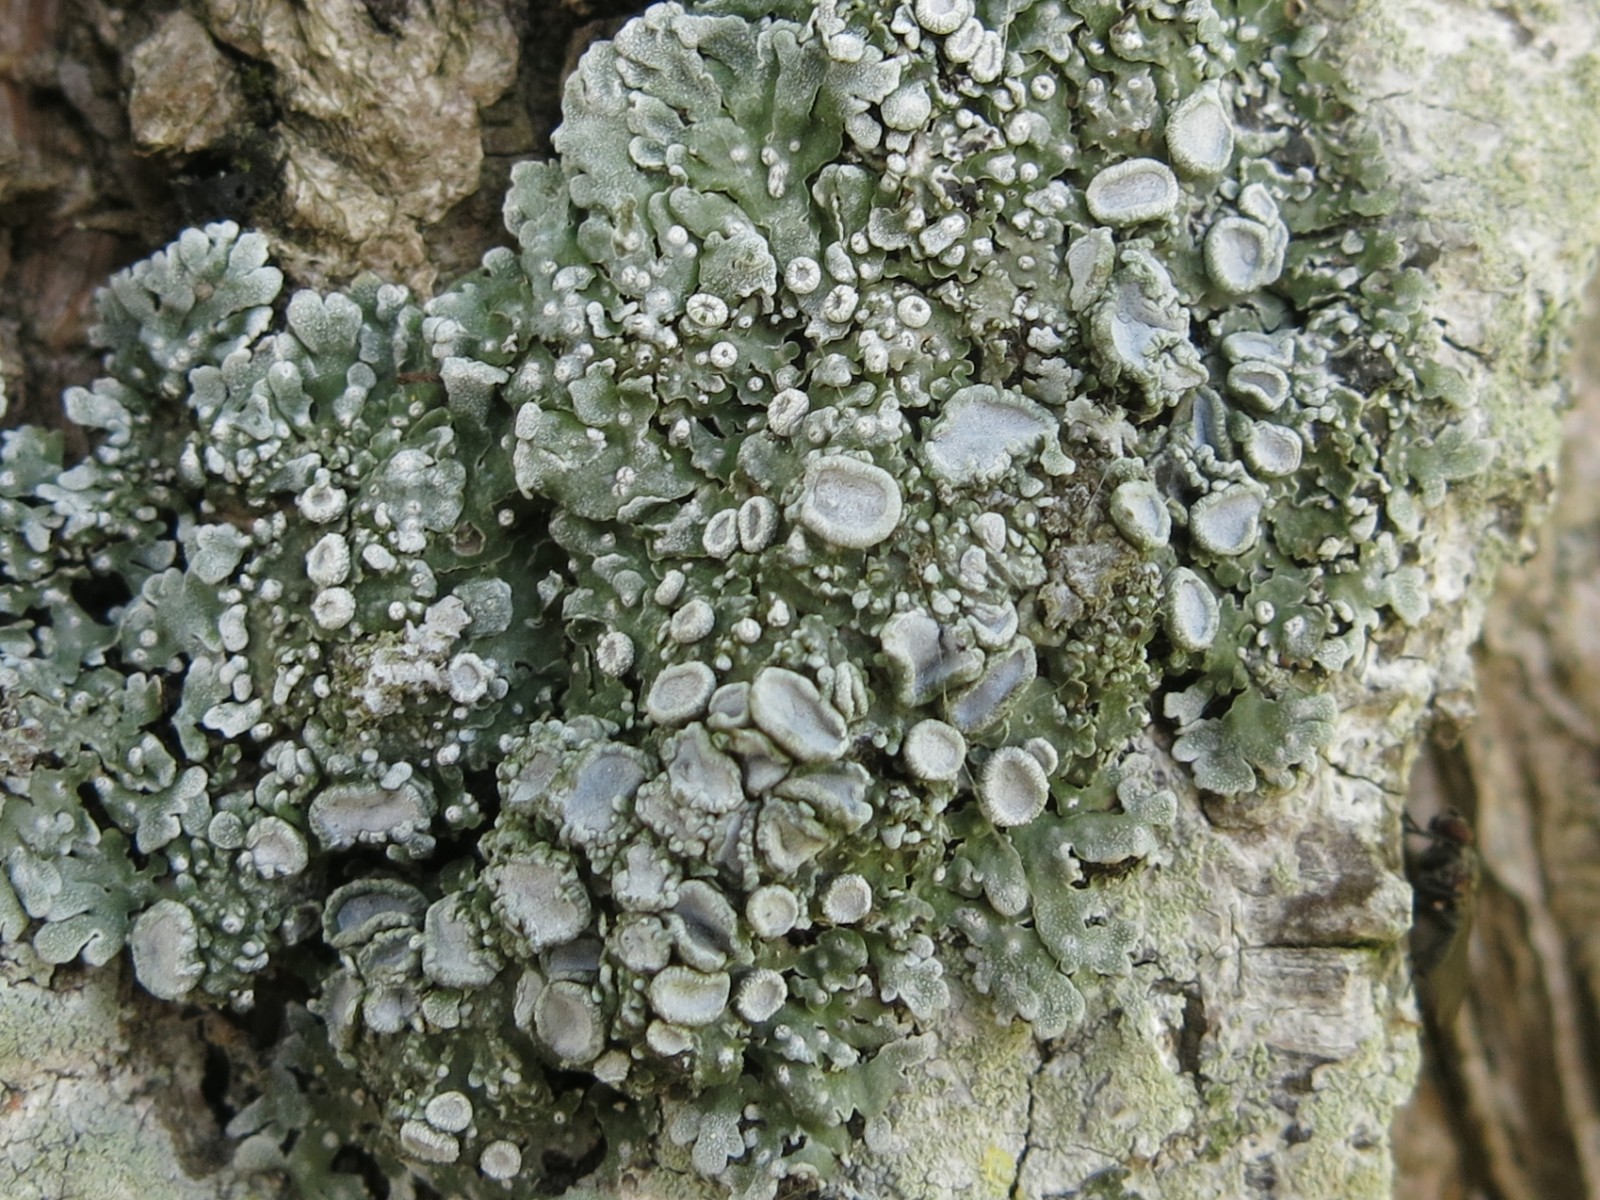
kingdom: Fungi
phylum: Ascomycota
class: Lecanoromycetes
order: Caliciales
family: Physciaceae
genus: Physconia
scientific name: Physconia distorta
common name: pudret dugrosetlav
